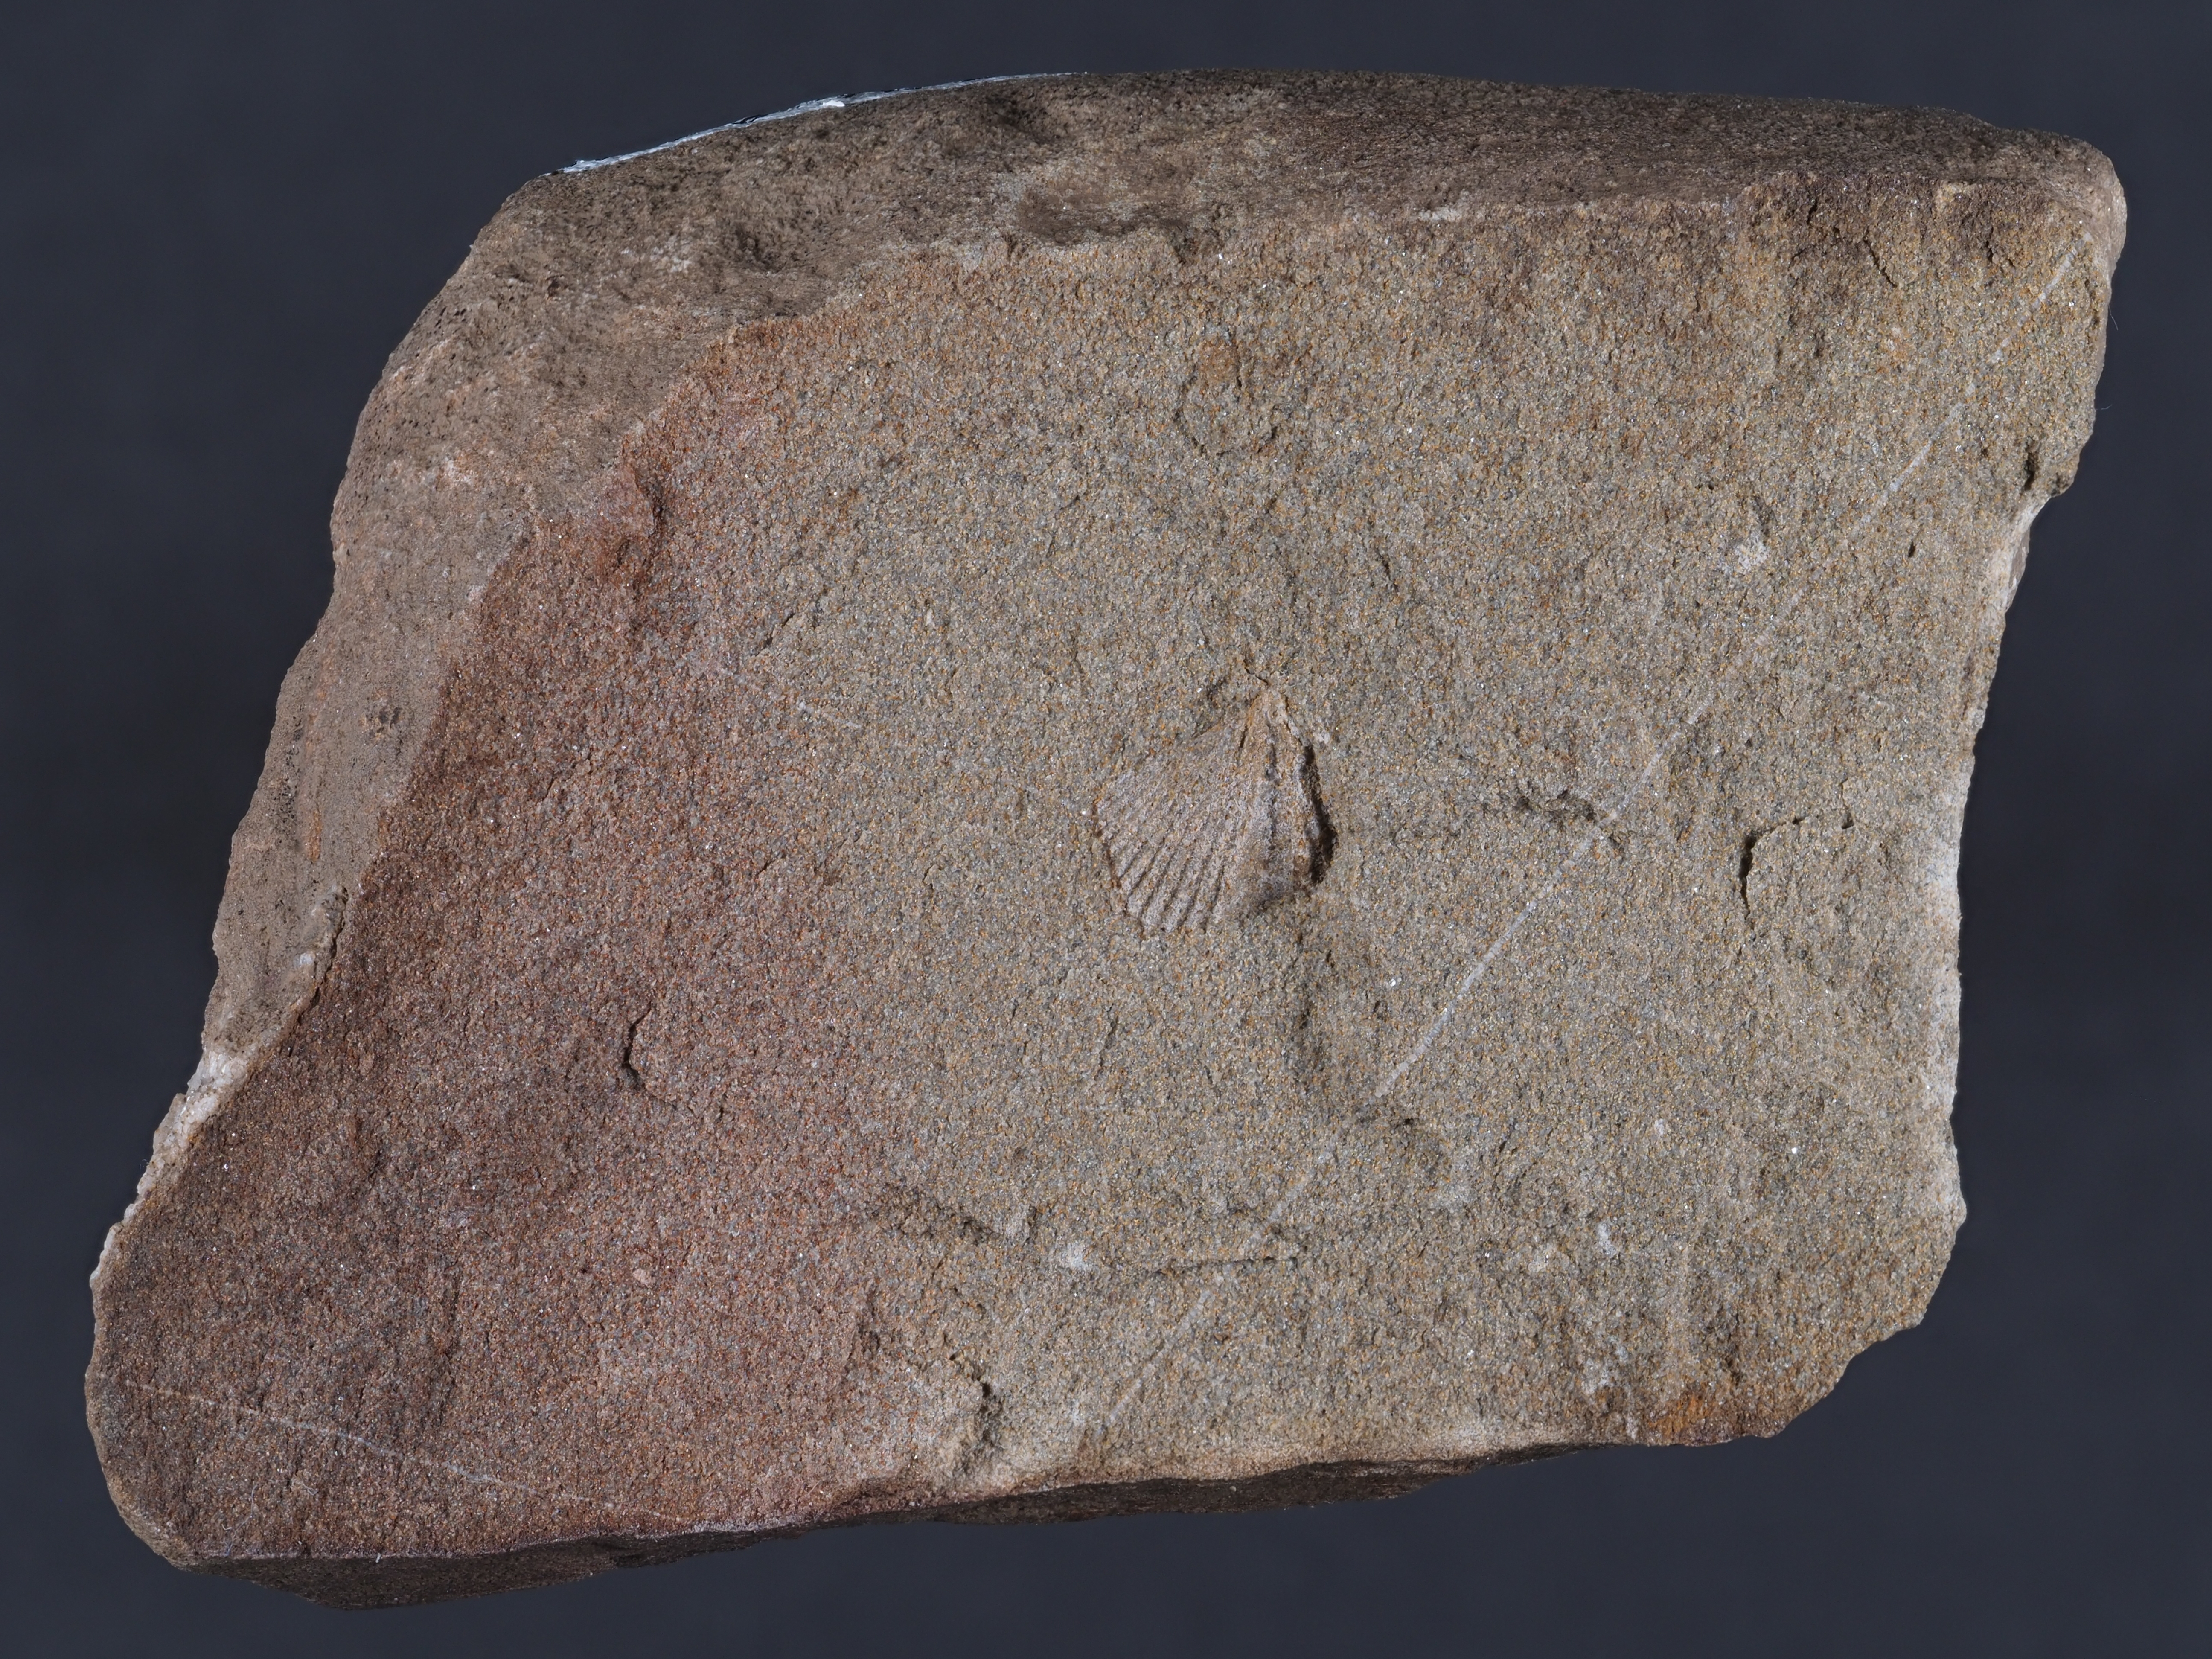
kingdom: Animalia
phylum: Brachiopoda
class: Rhynchonellata
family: Spinocyrtiidae
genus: Subcuspidella
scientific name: Subcuspidella
